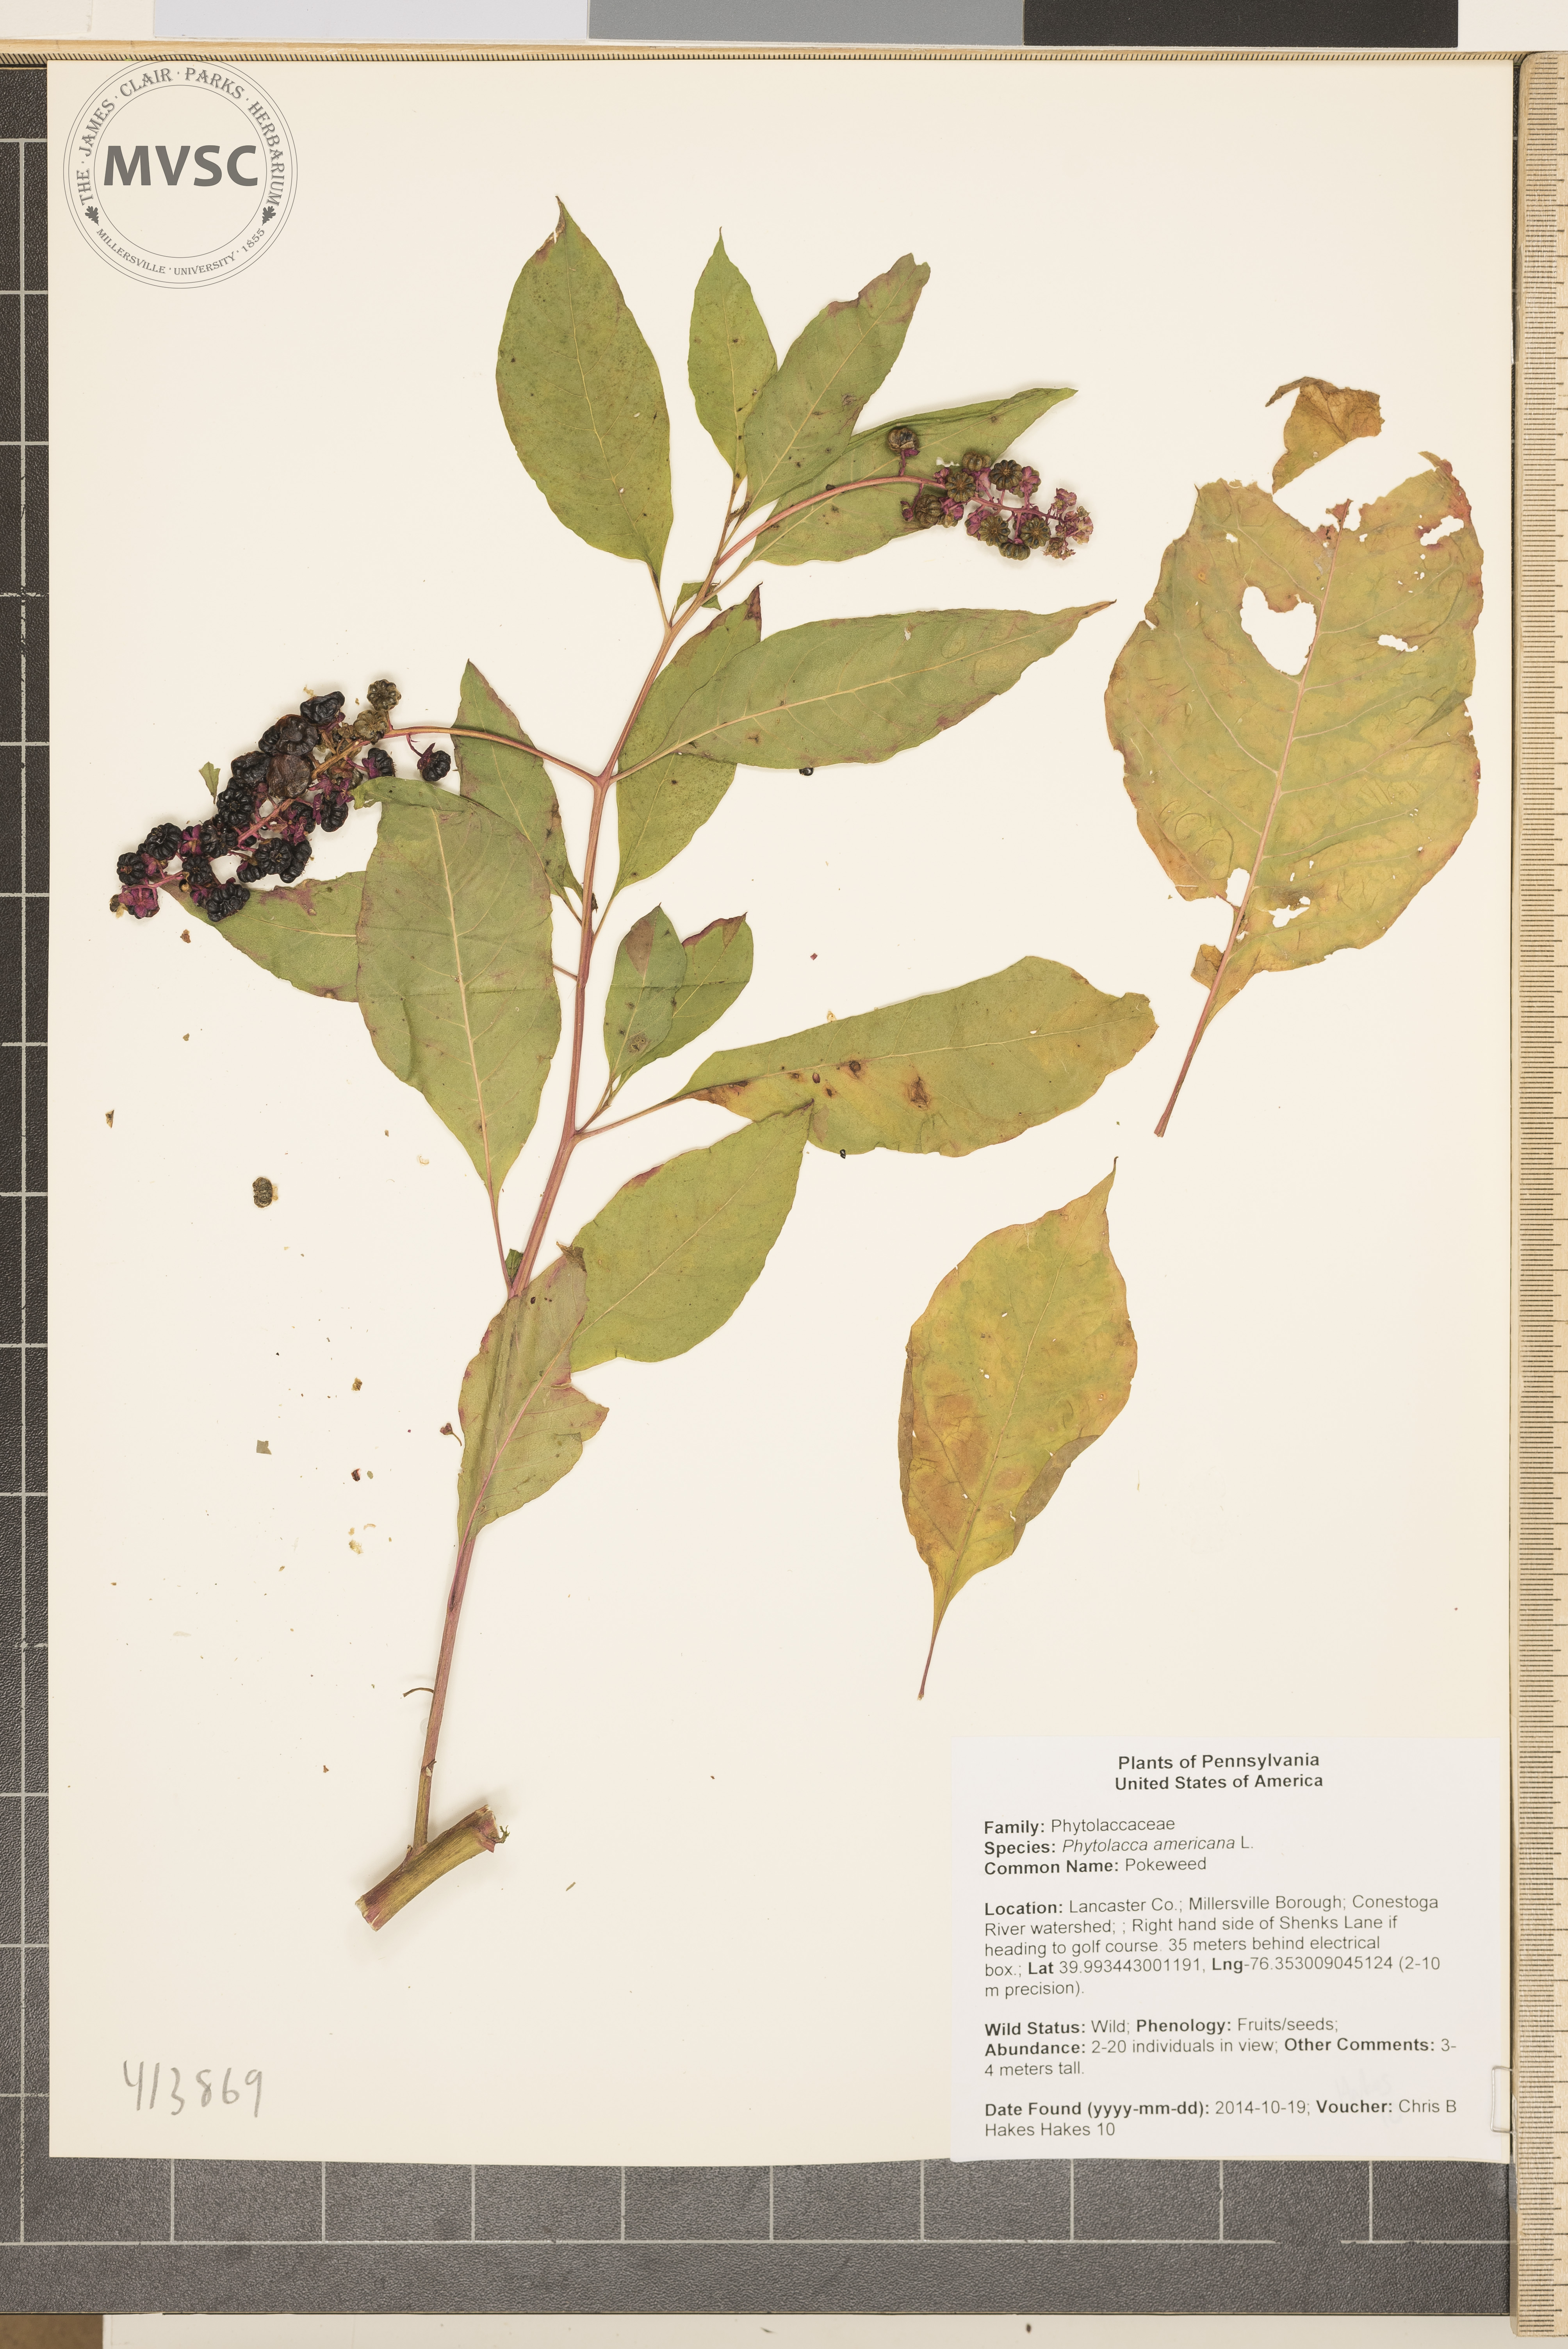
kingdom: Plantae
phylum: Tracheophyta
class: Magnoliopsida
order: Caryophyllales
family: Phytolaccaceae
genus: Phytolacca
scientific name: Phytolacca americana
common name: Pokeweed
